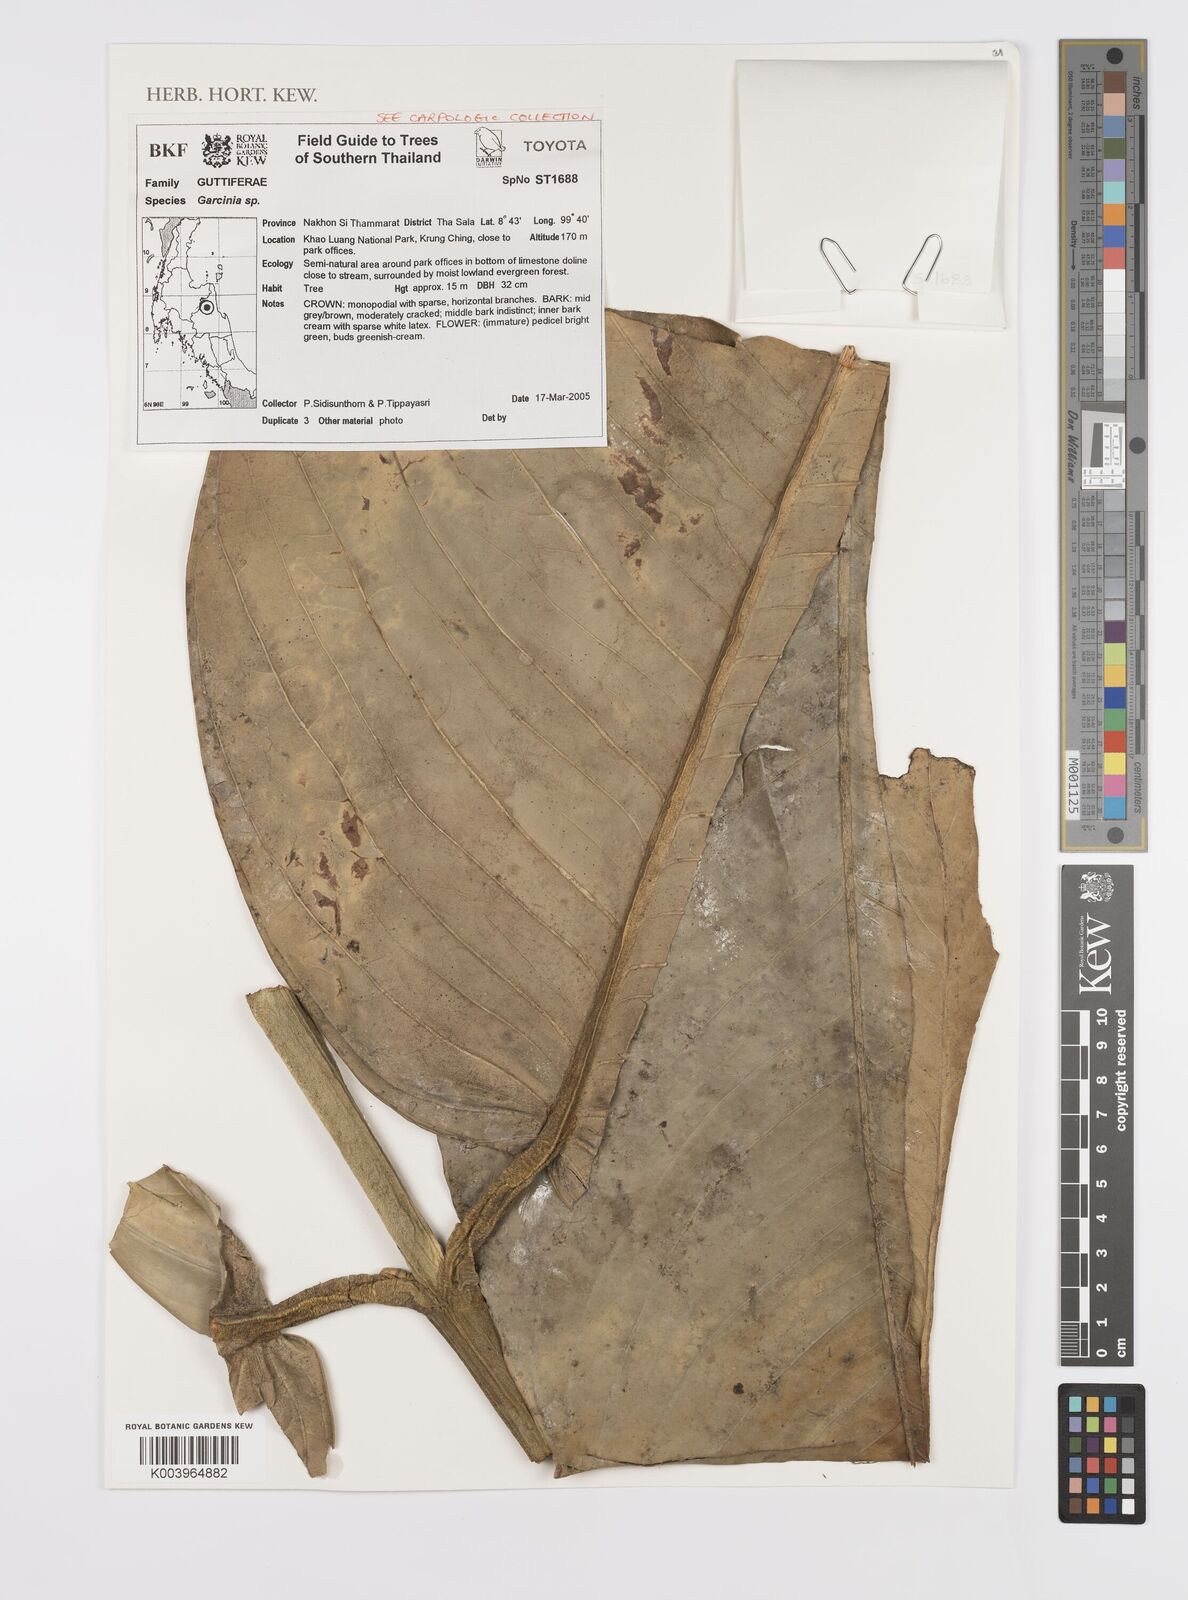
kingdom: Plantae
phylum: Tracheophyta
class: Magnoliopsida
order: Malpighiales
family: Clusiaceae
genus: Garcinia
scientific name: Garcinia
